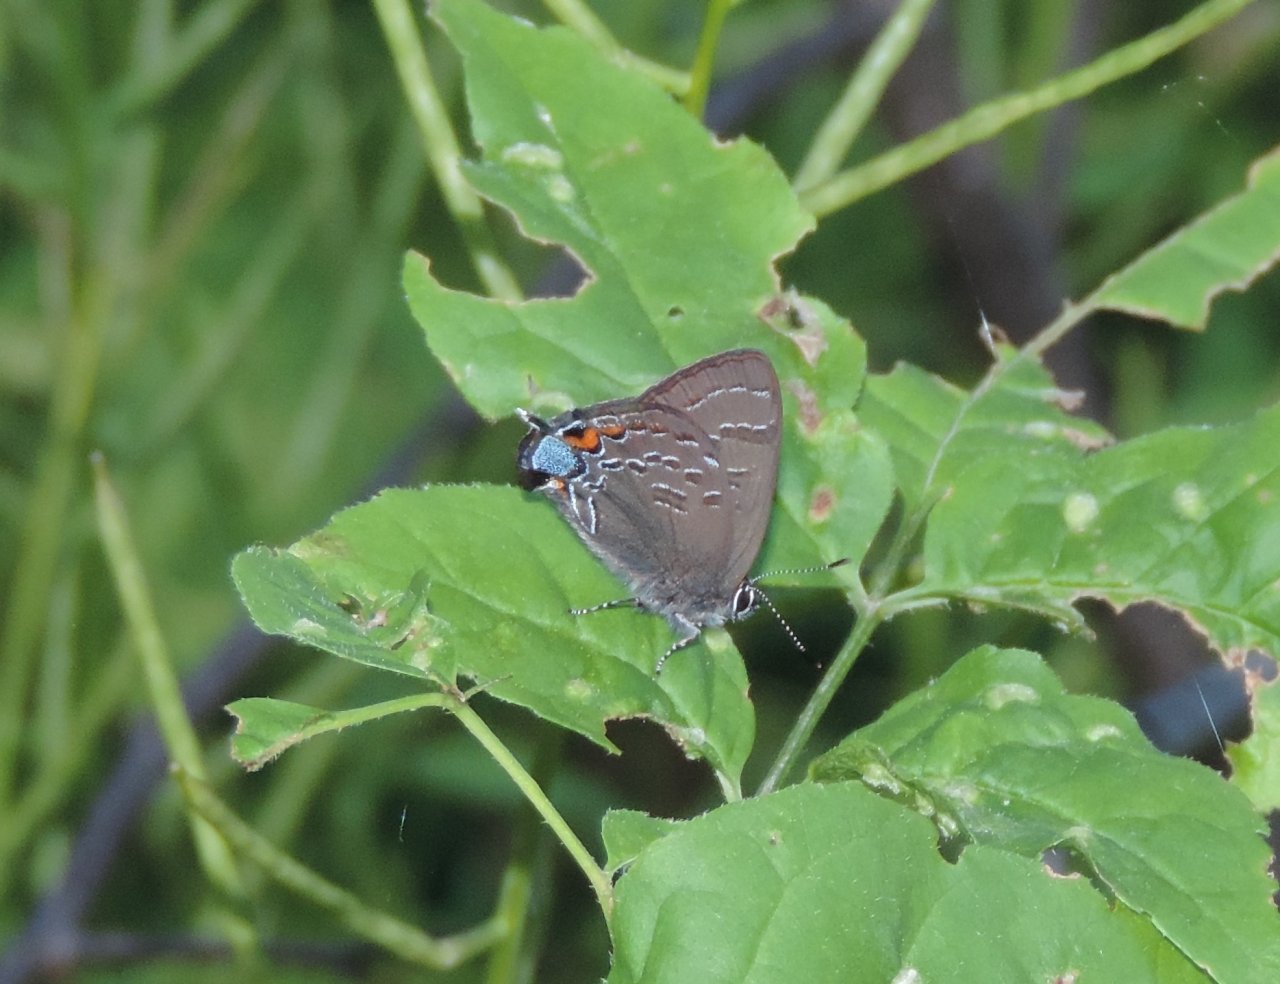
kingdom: Animalia
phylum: Arthropoda
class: Insecta
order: Lepidoptera
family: Lycaenidae
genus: Strymon
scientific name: Strymon caryaevorus
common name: Hickory Hairstreak
